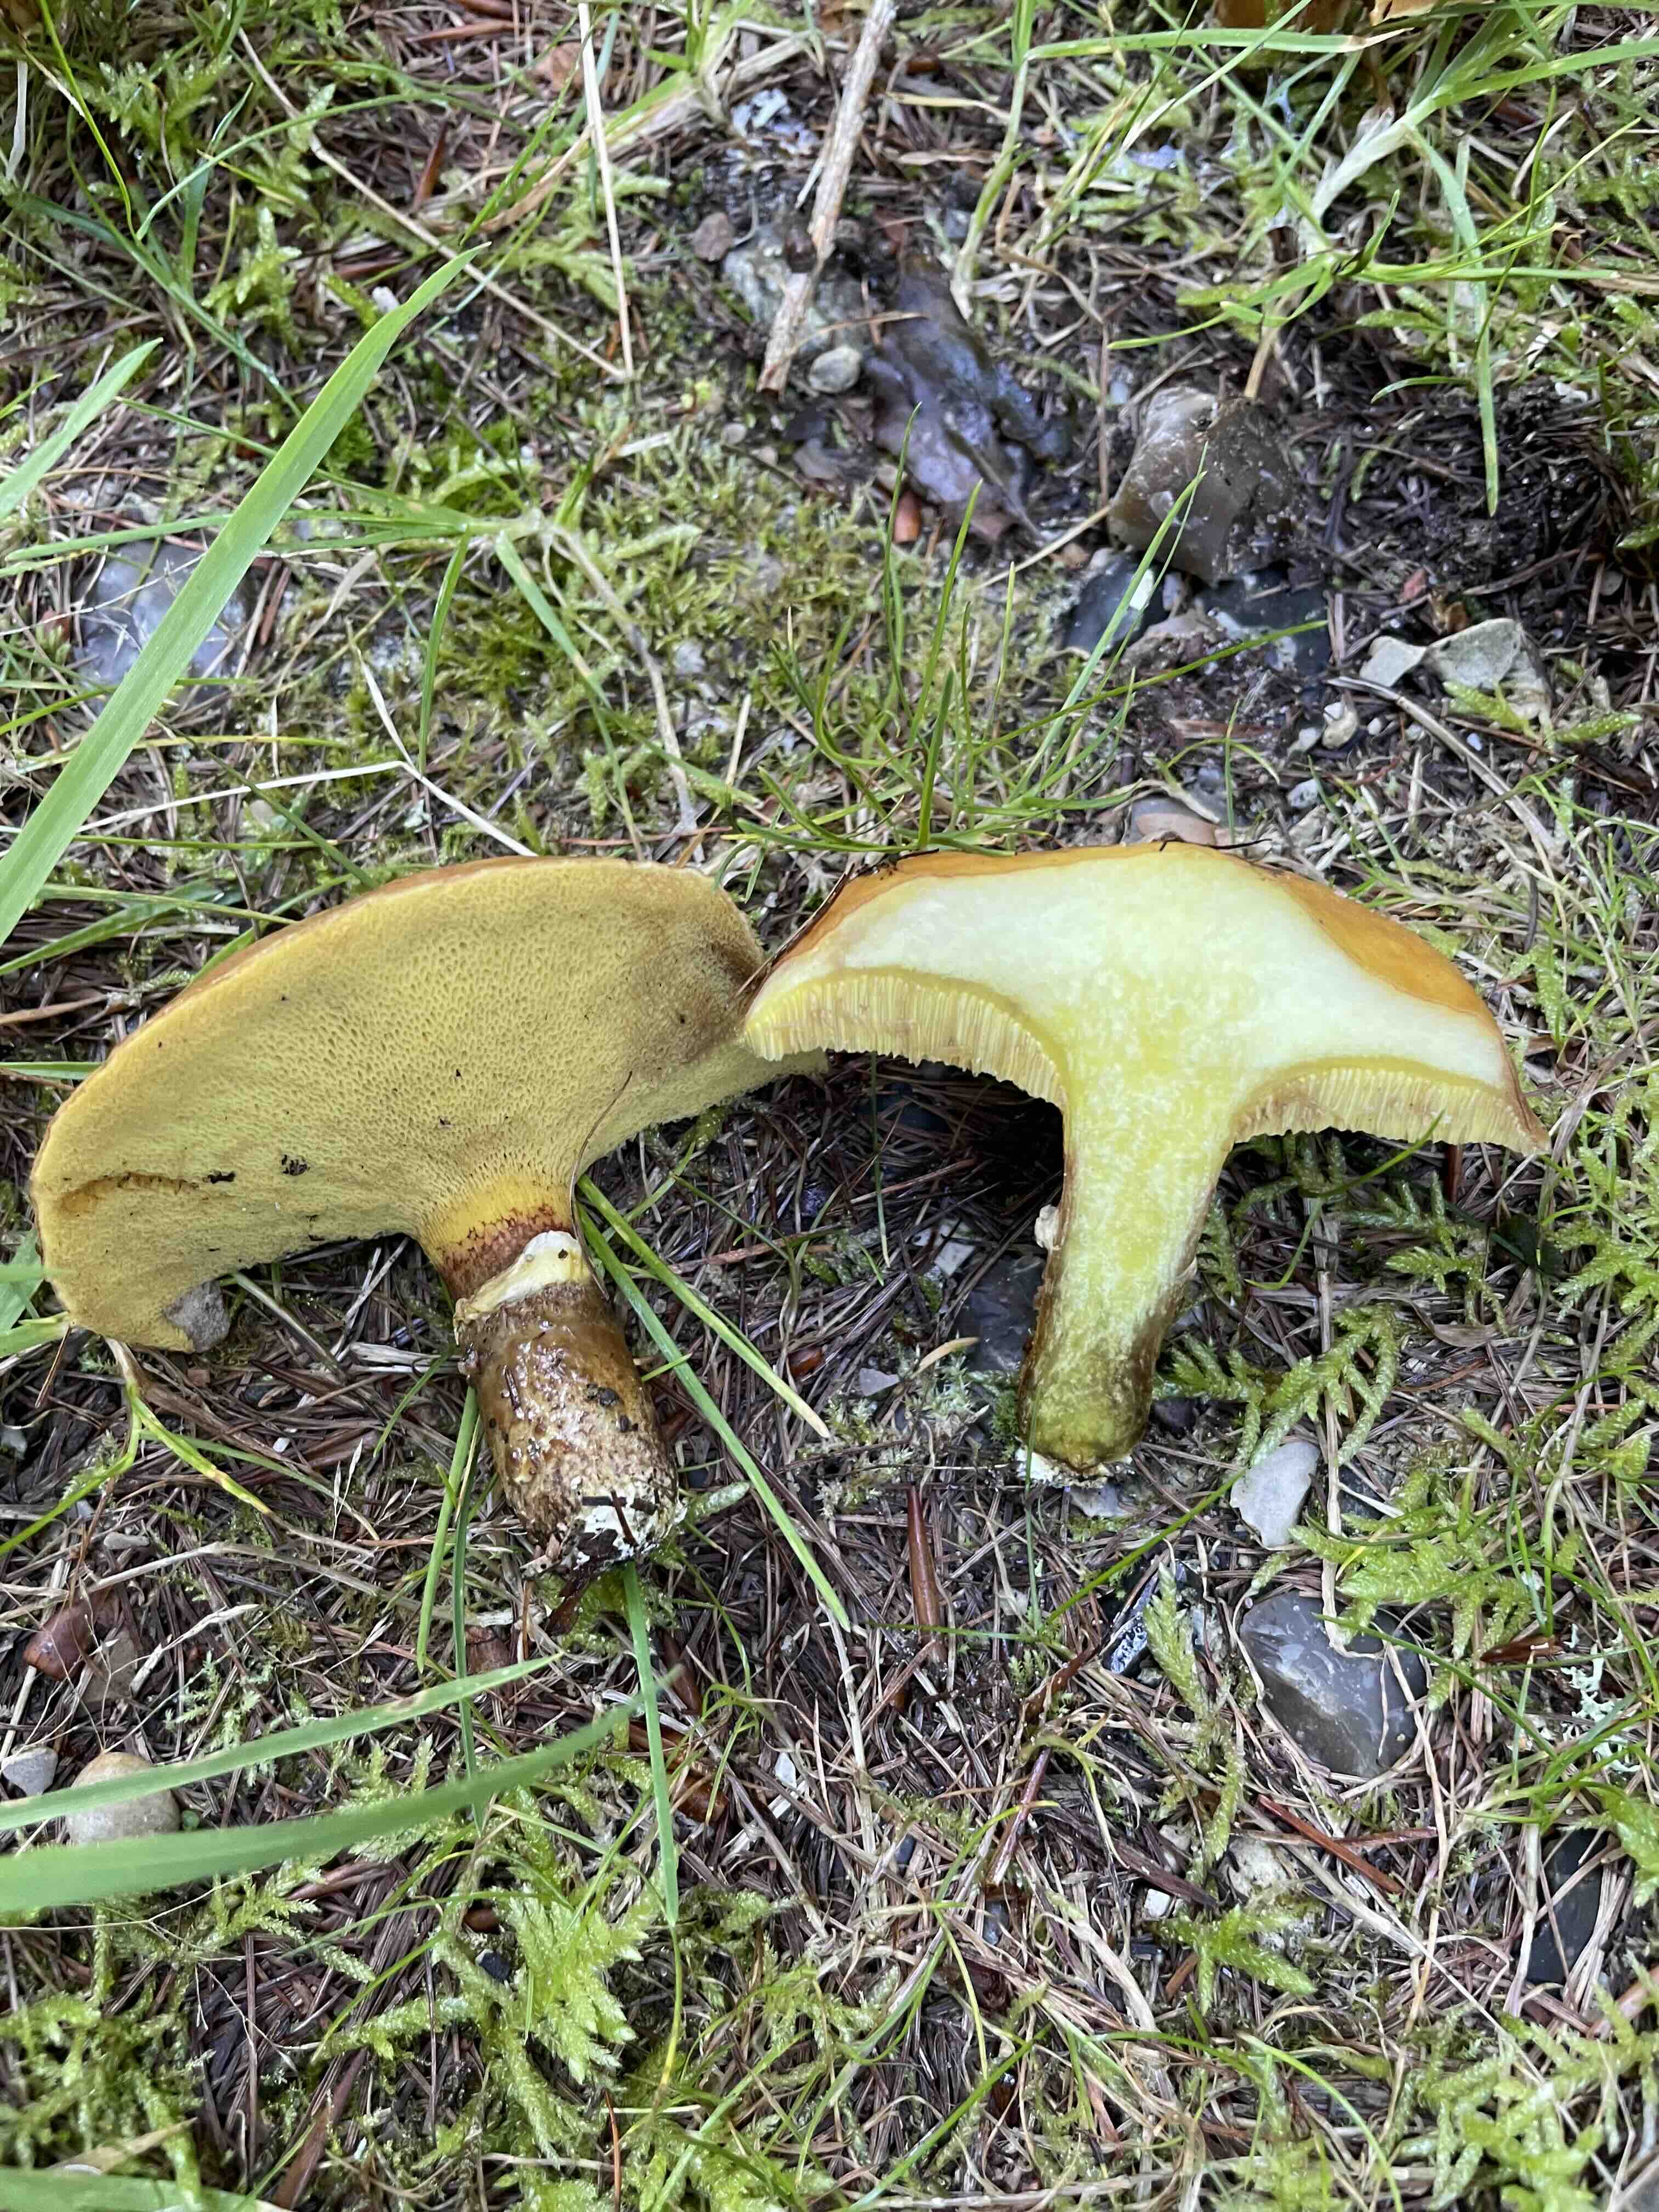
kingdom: Fungi
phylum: Basidiomycota
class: Agaricomycetes
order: Boletales
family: Suillaceae
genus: Suillus
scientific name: Suillus grevillei
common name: lærke-slimrørhat
